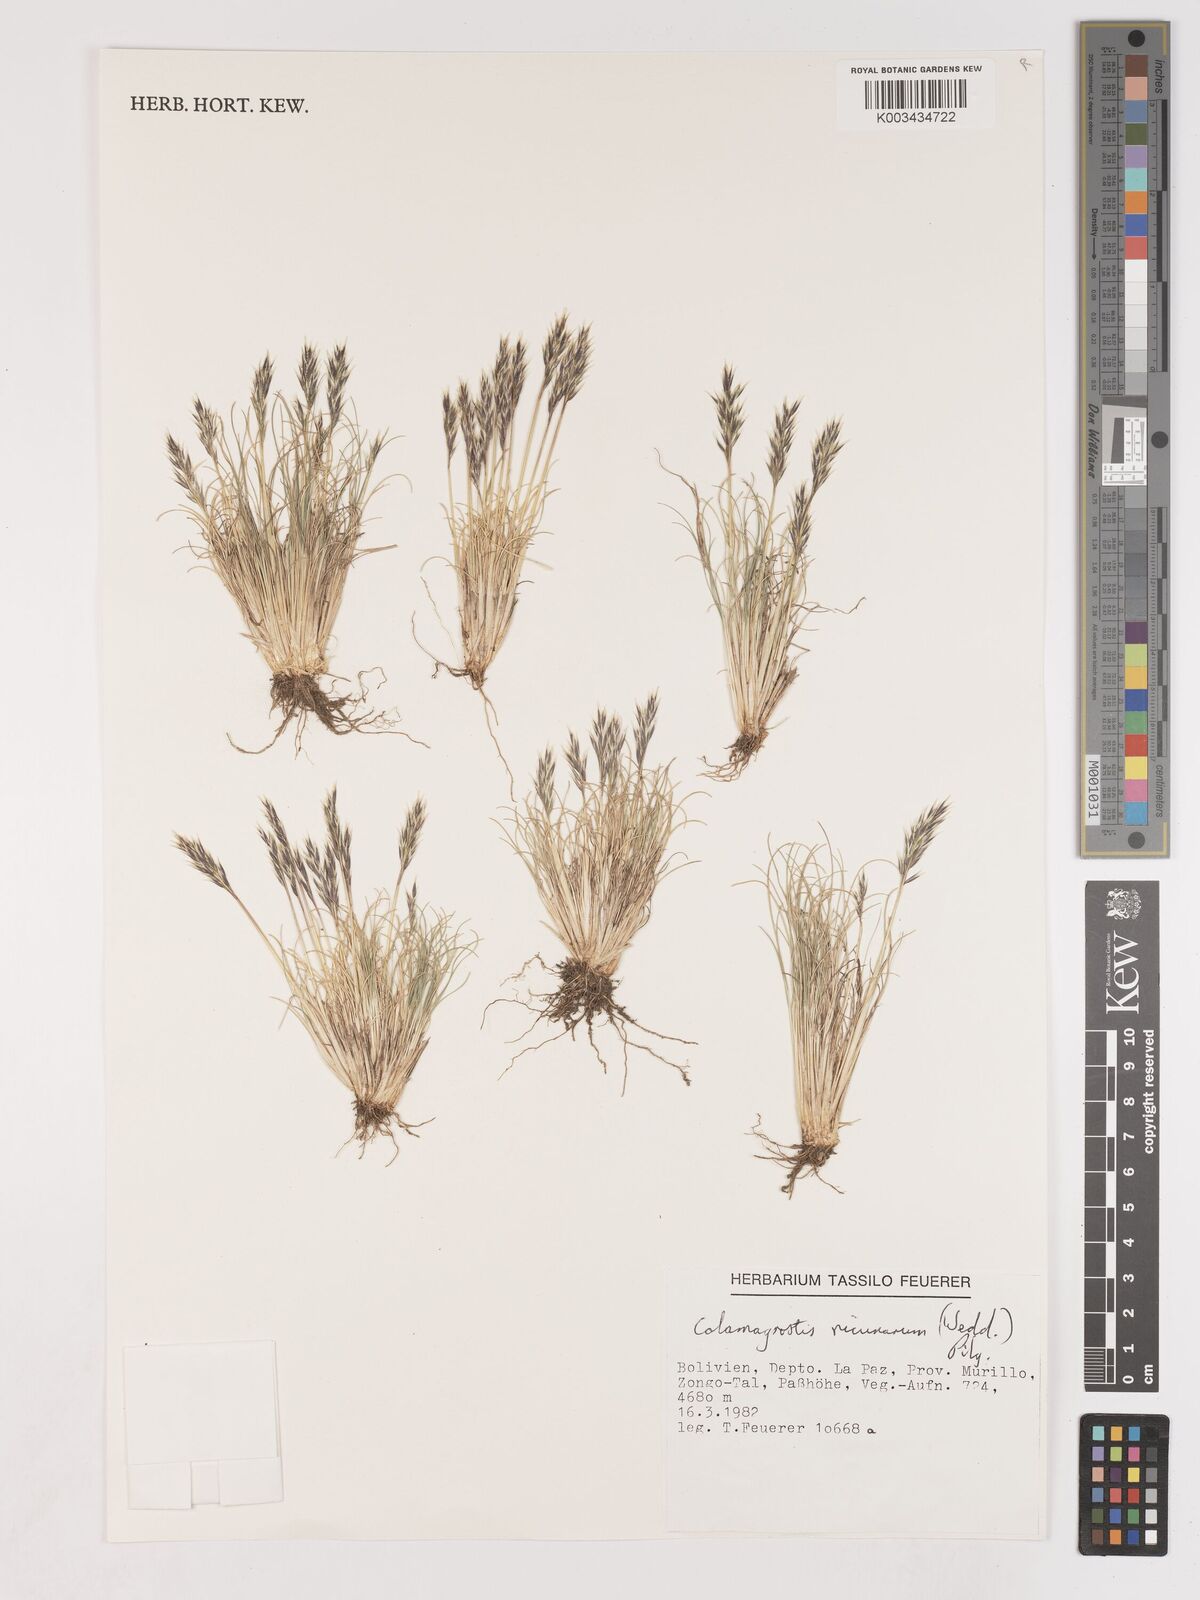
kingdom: Plantae
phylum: Tracheophyta
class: Liliopsida
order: Poales
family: Poaceae
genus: Cinnagrostis
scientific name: Cinnagrostis vicunarum
